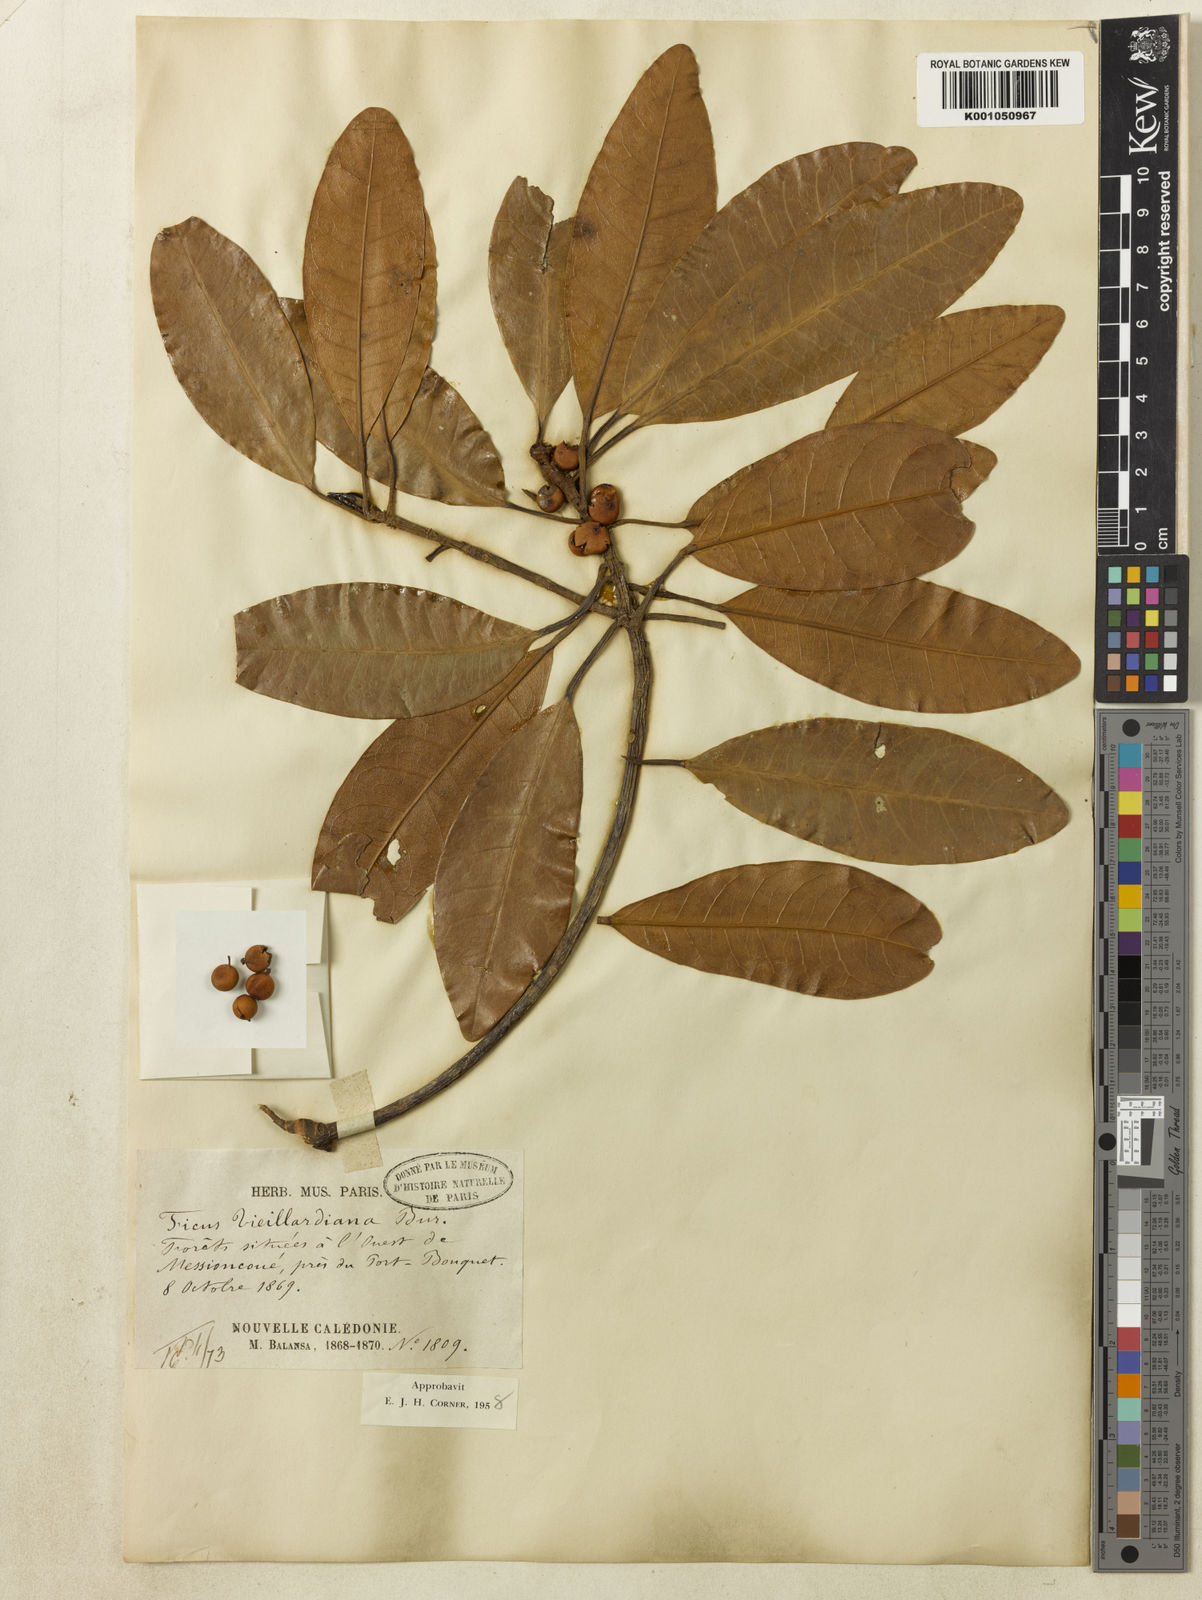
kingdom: Plantae
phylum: Tracheophyta
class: Magnoliopsida
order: Rosales
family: Moraceae
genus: Ficus
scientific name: Ficus vieillardiana
